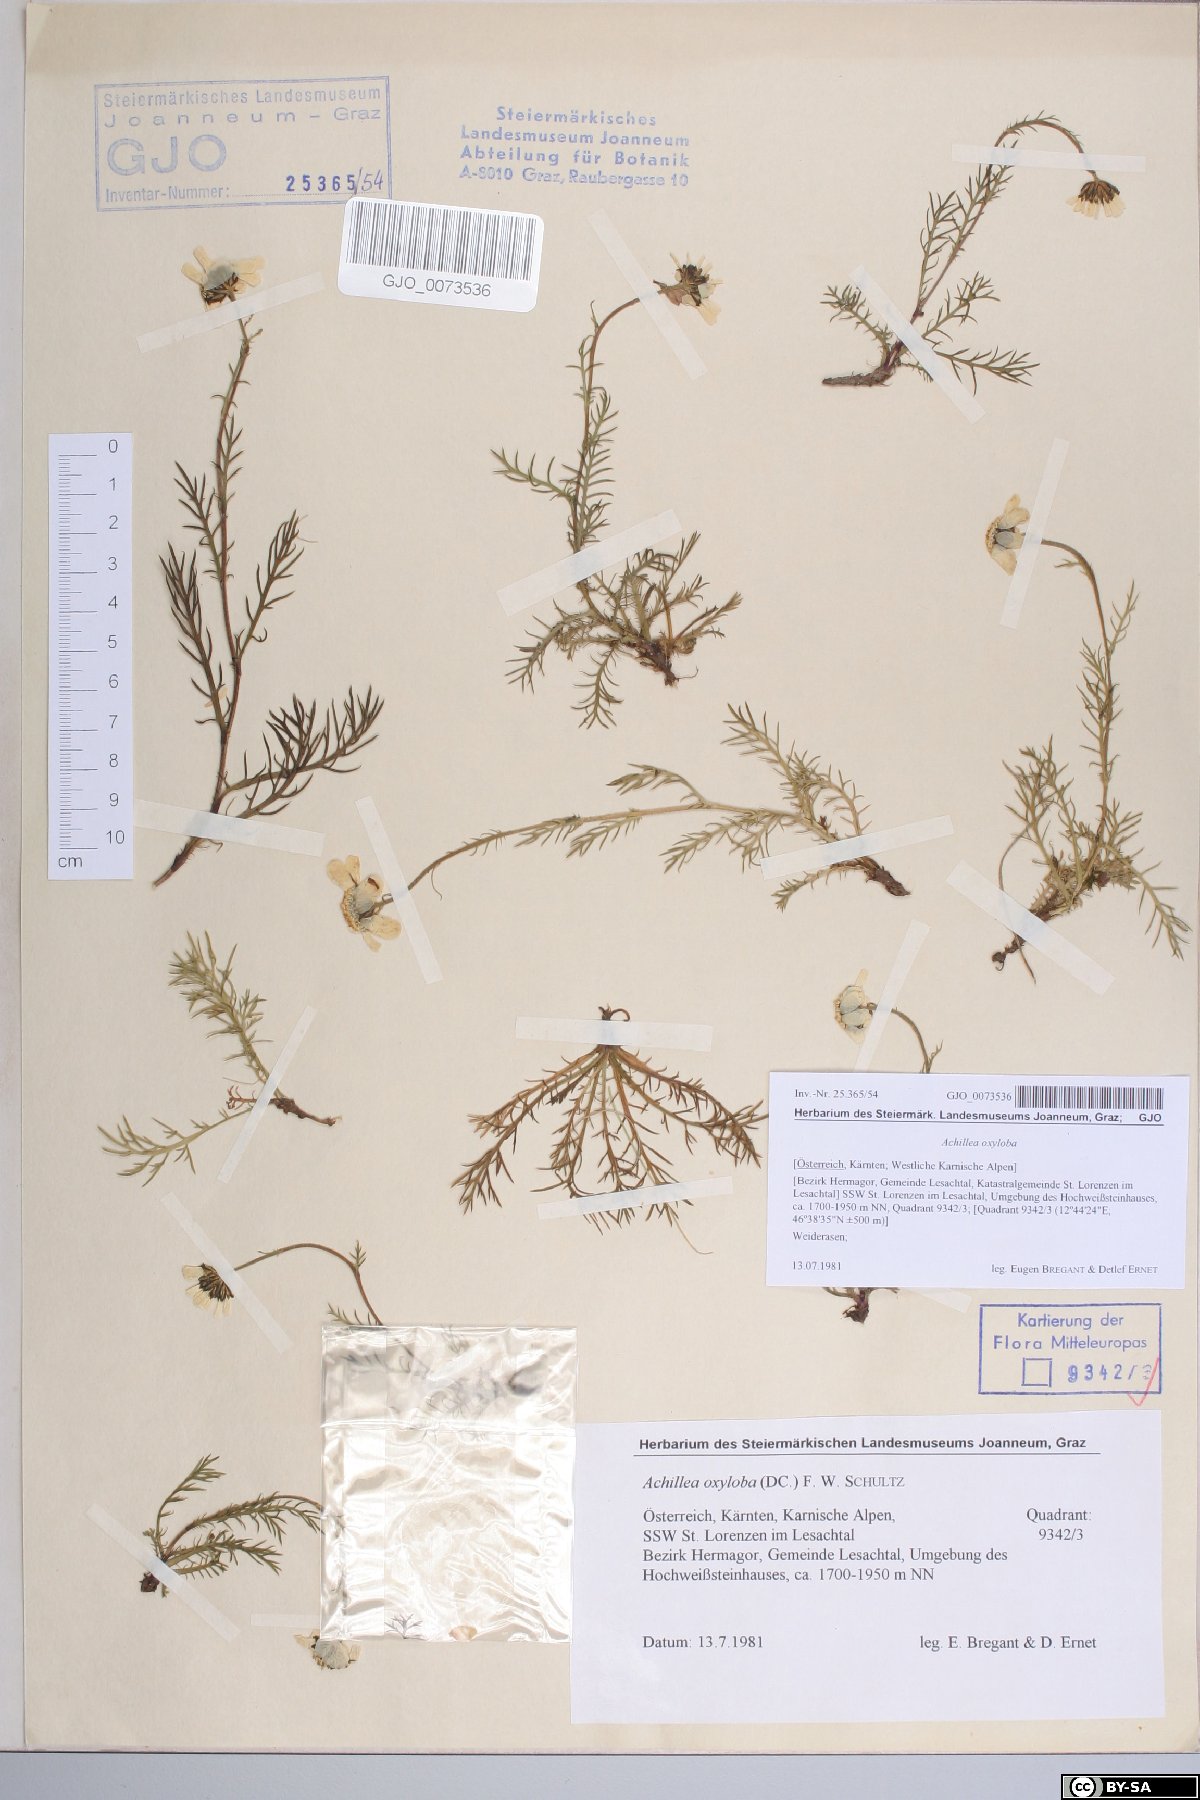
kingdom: Plantae
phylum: Tracheophyta
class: Magnoliopsida
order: Asterales
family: Asteraceae
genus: Achillea
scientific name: Achillea oxyloba
